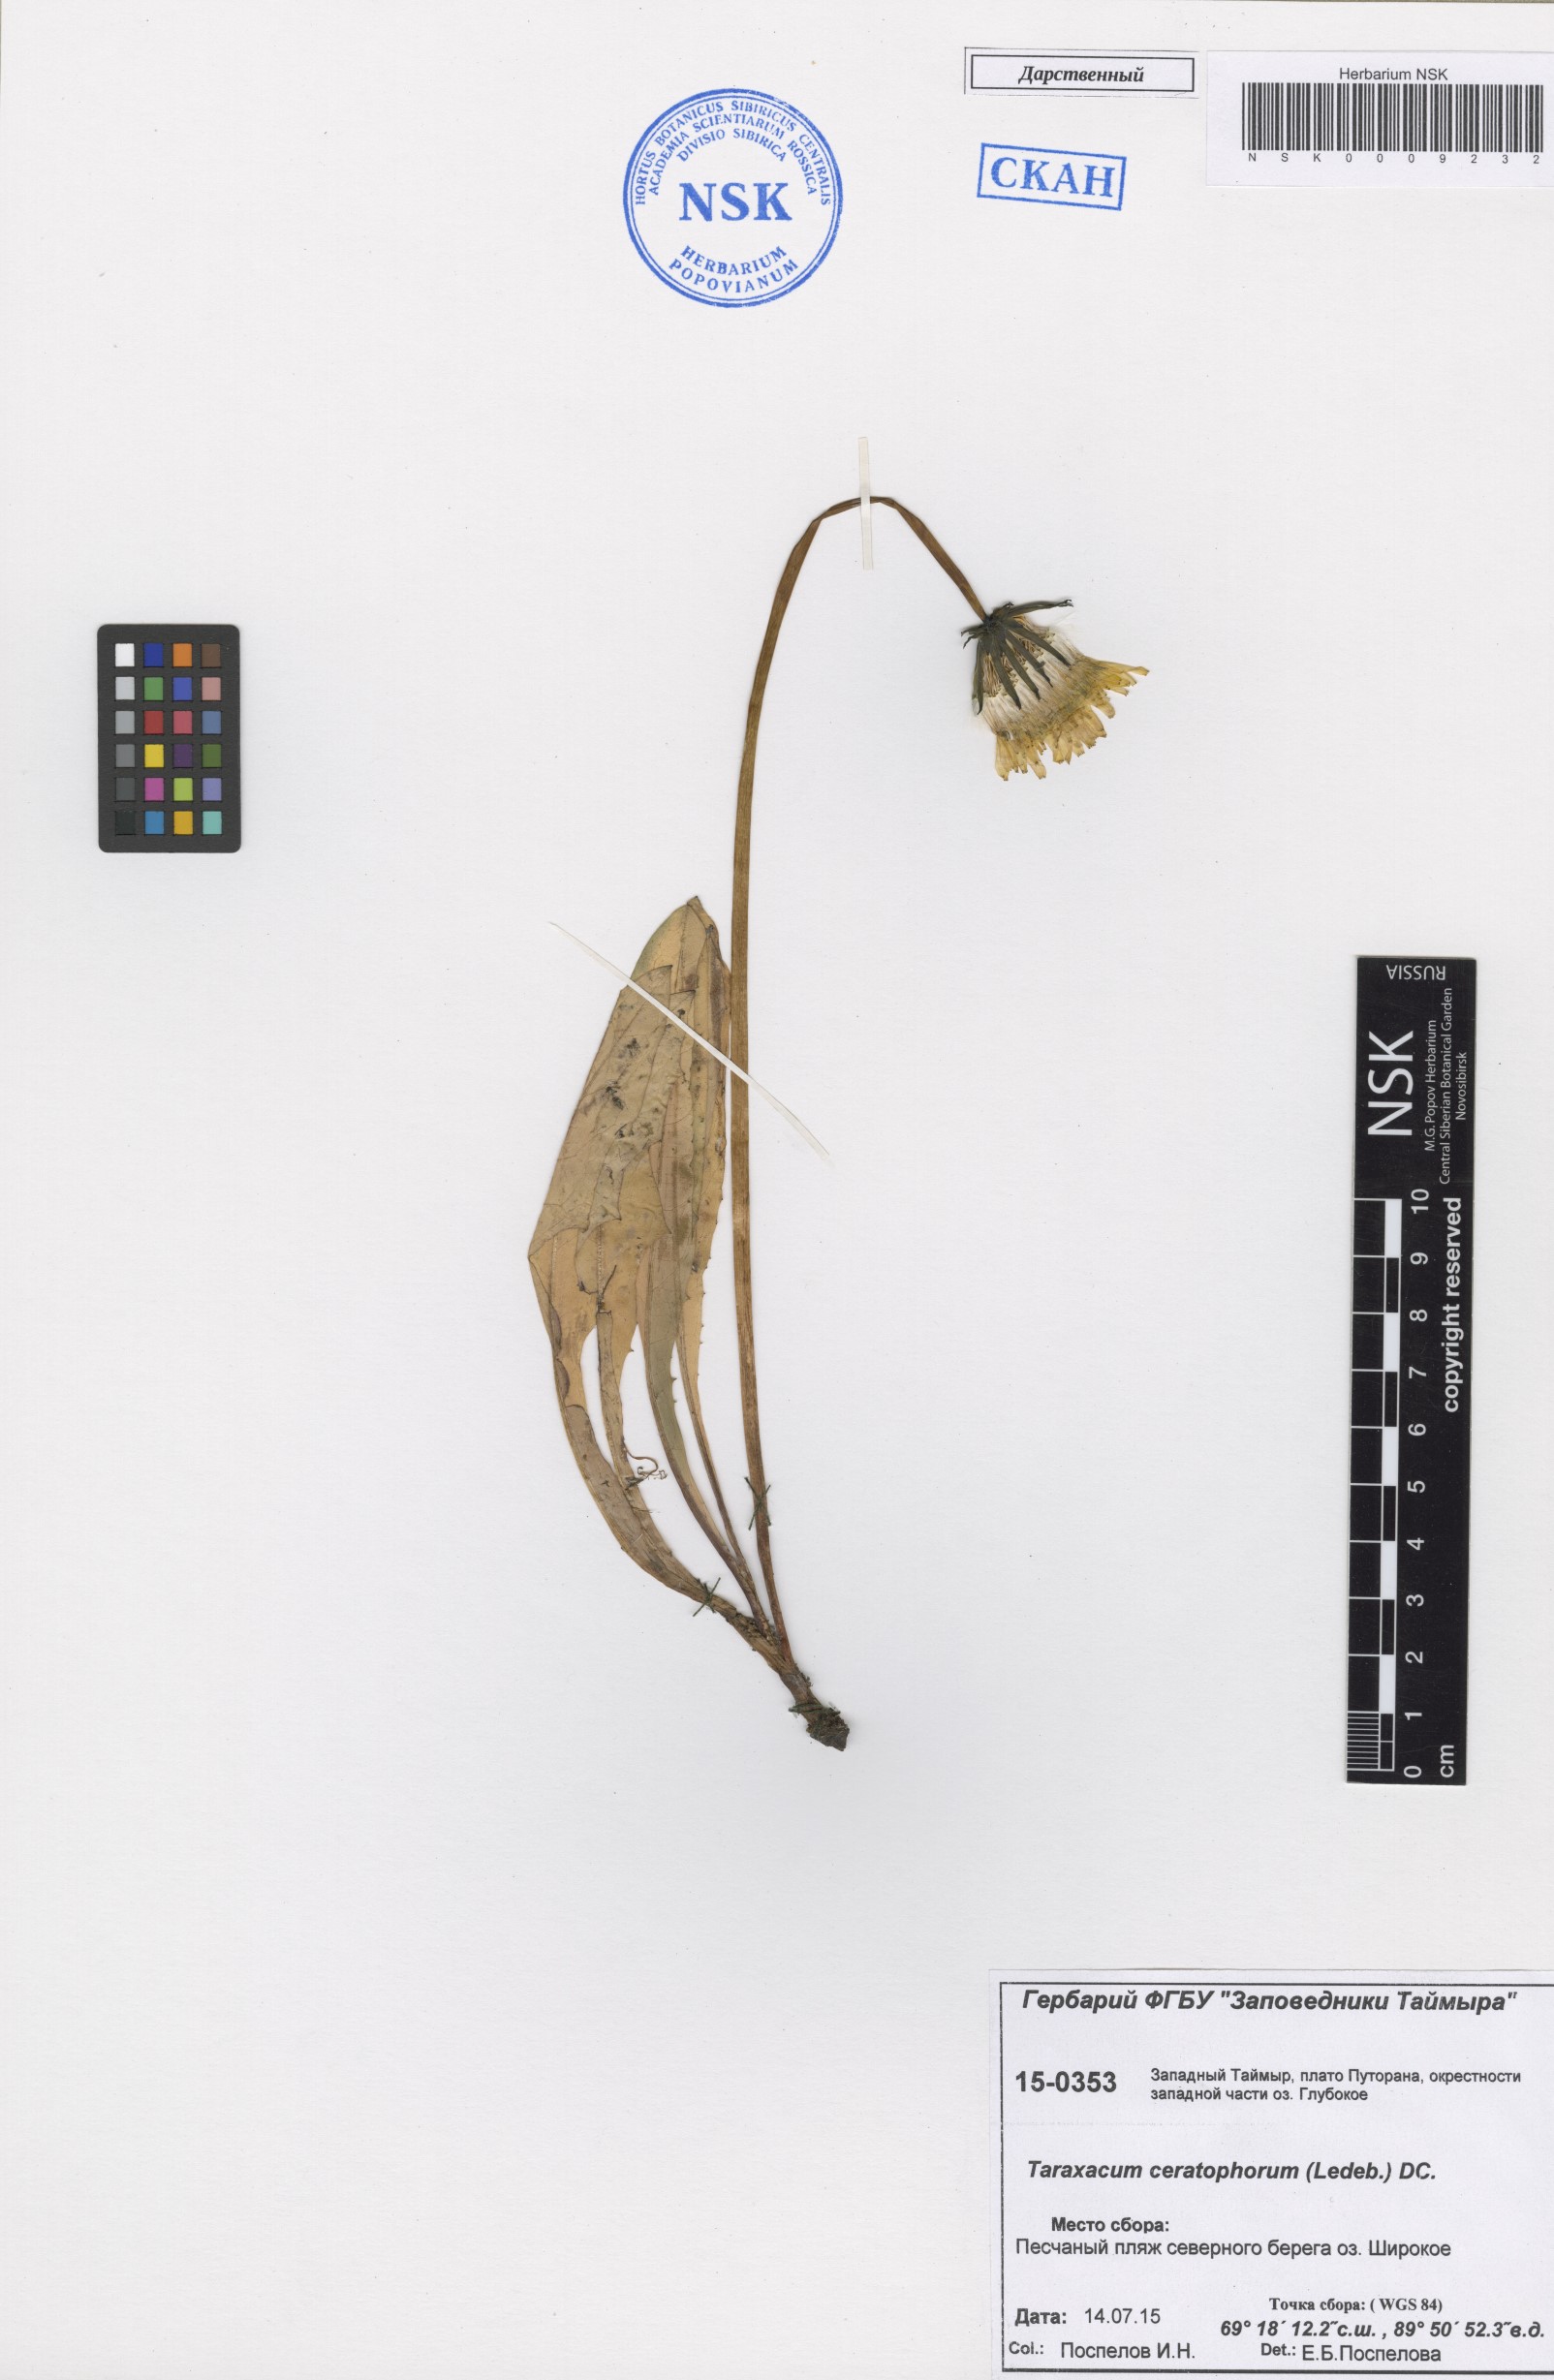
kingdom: Plantae
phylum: Tracheophyta
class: Magnoliopsida
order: Asterales
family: Asteraceae
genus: Taraxacum
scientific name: Taraxacum ceratophorum
